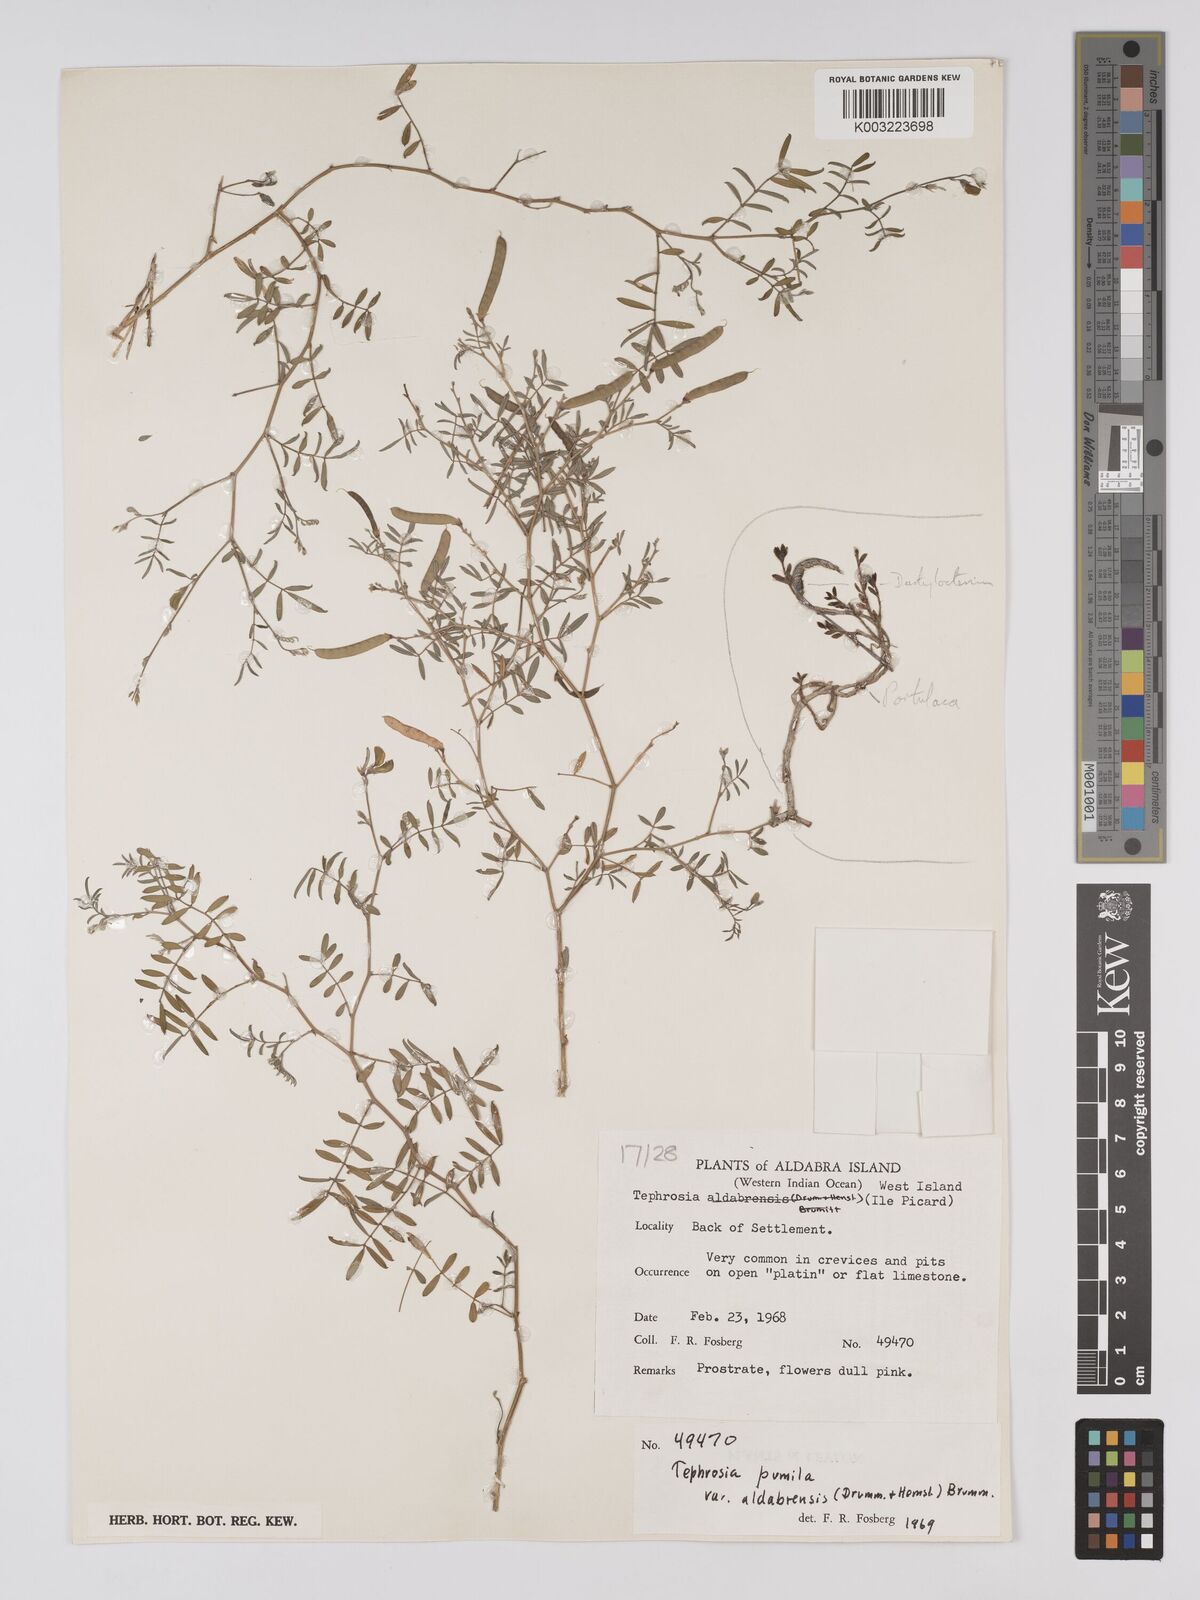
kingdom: Plantae
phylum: Tracheophyta
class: Magnoliopsida
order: Fabales
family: Fabaceae
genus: Tephrosia
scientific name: Tephrosia pumila
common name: Indigo sauvage
